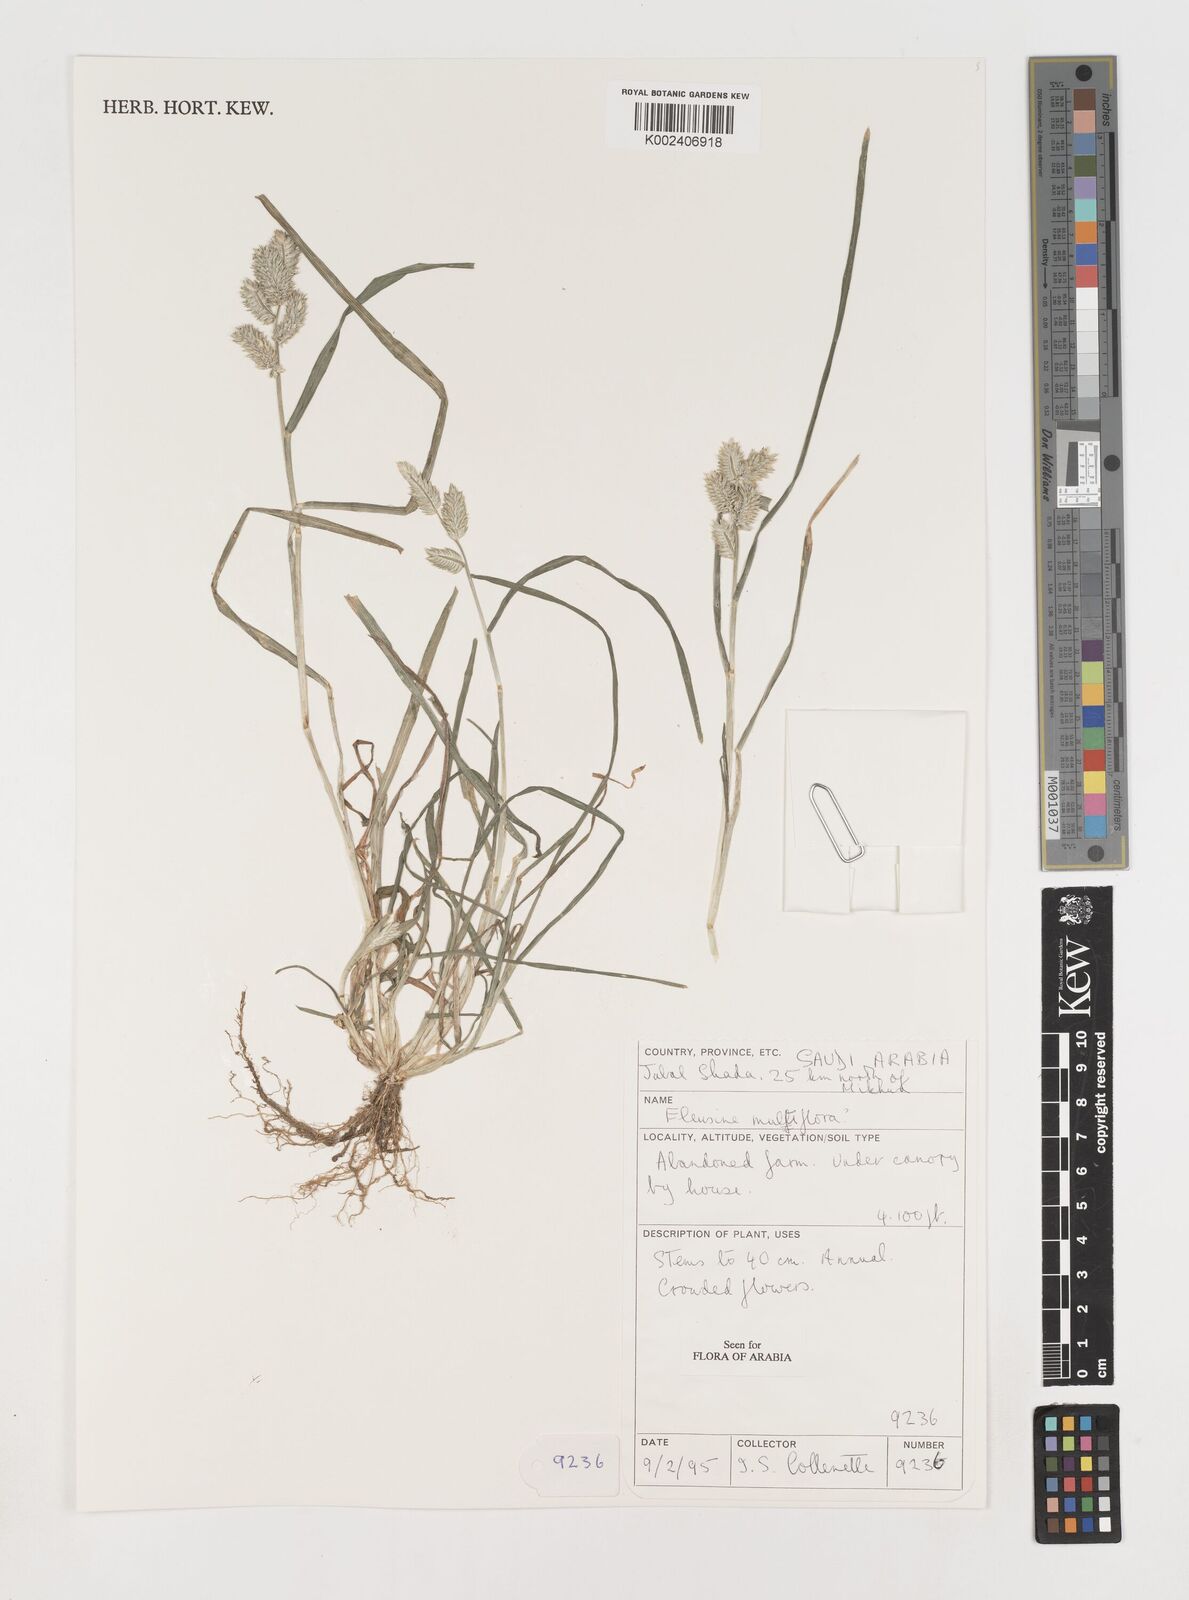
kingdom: Plantae
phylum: Tracheophyta
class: Liliopsida
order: Poales
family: Poaceae
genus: Eleusine
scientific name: Eleusine multiflora
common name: Fat-spiked yard-grass
